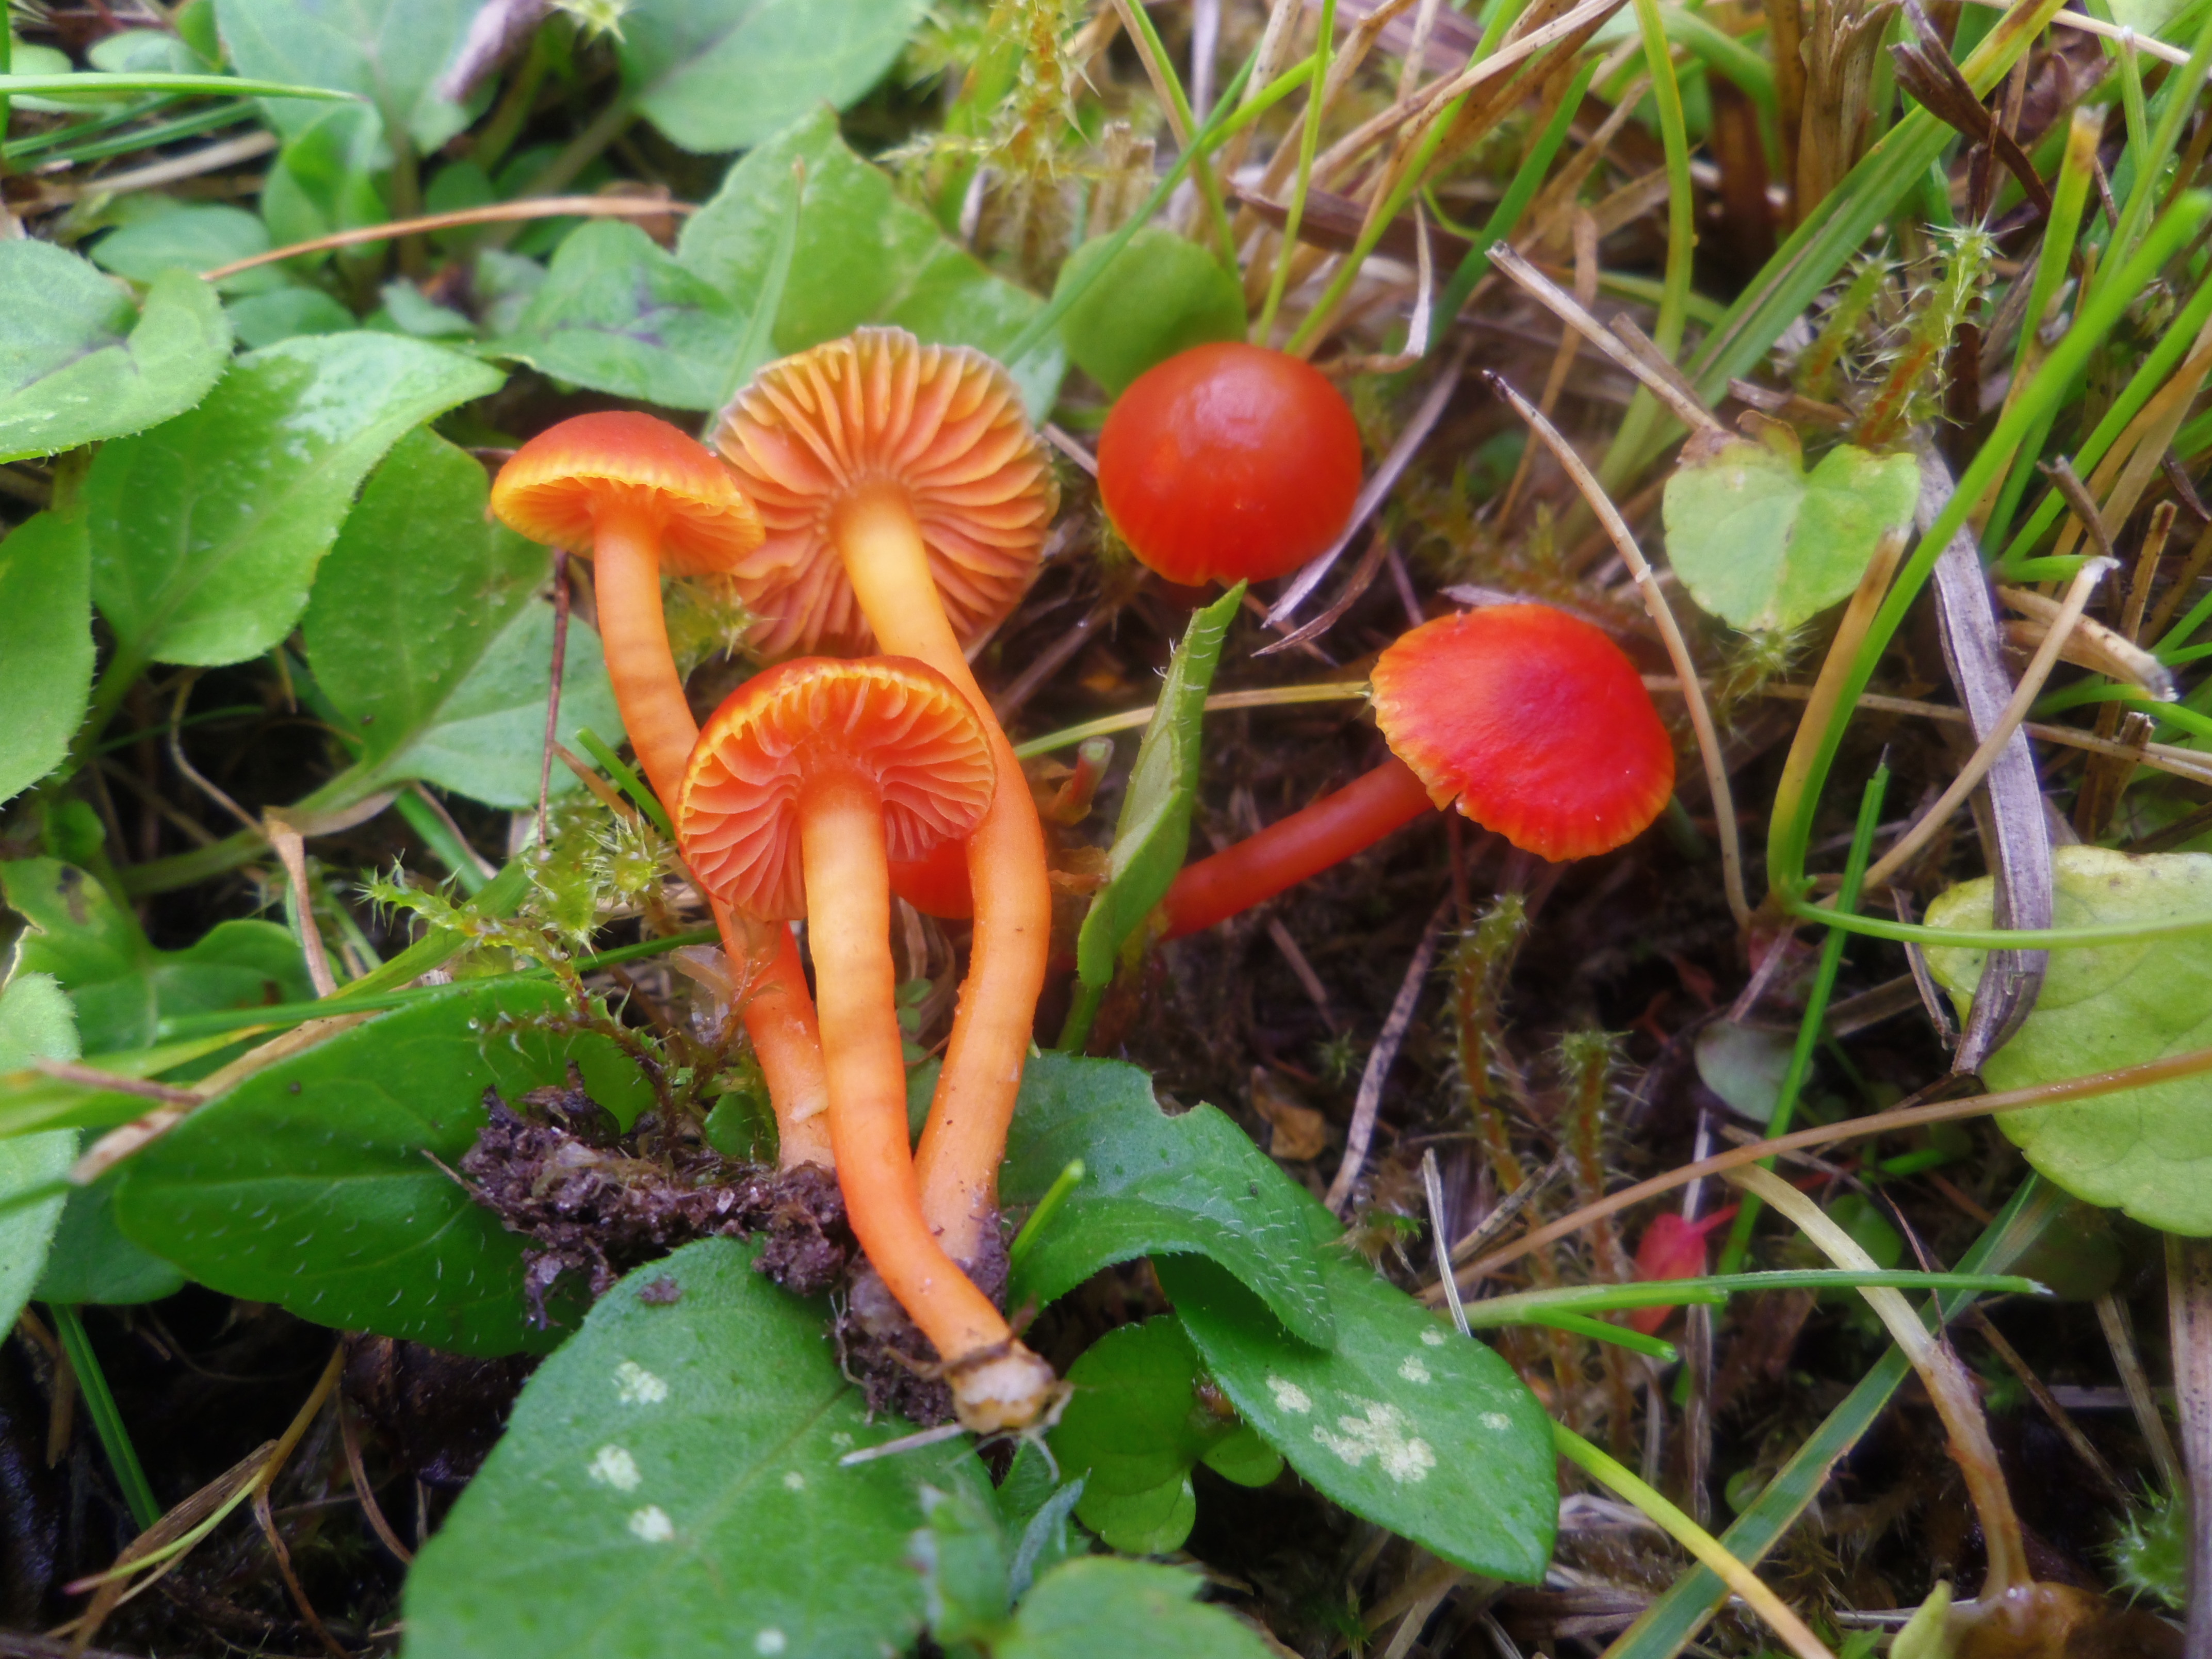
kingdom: Fungi
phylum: Basidiomycota
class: Agaricomycetes
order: Agaricales
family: Hygrophoraceae
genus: Hygrocybe
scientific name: Hygrocybe
